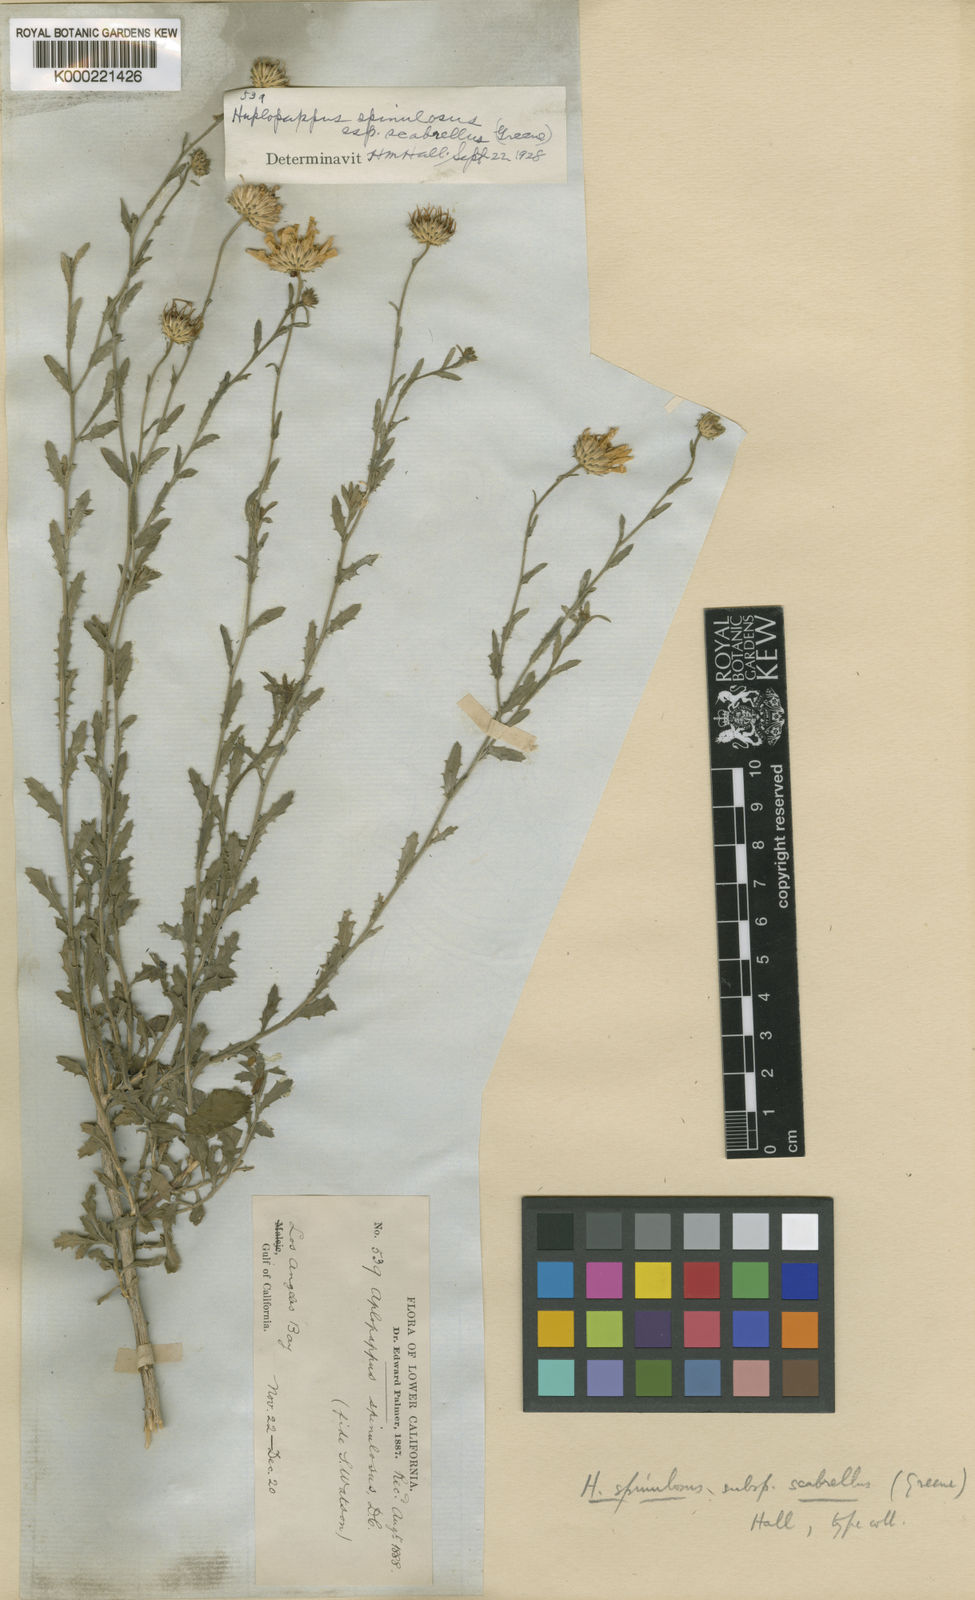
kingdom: Plantae
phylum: Tracheophyta
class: Magnoliopsida
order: Asterales
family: Asteraceae
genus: Xanthisma
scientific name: Xanthisma scabrellum
